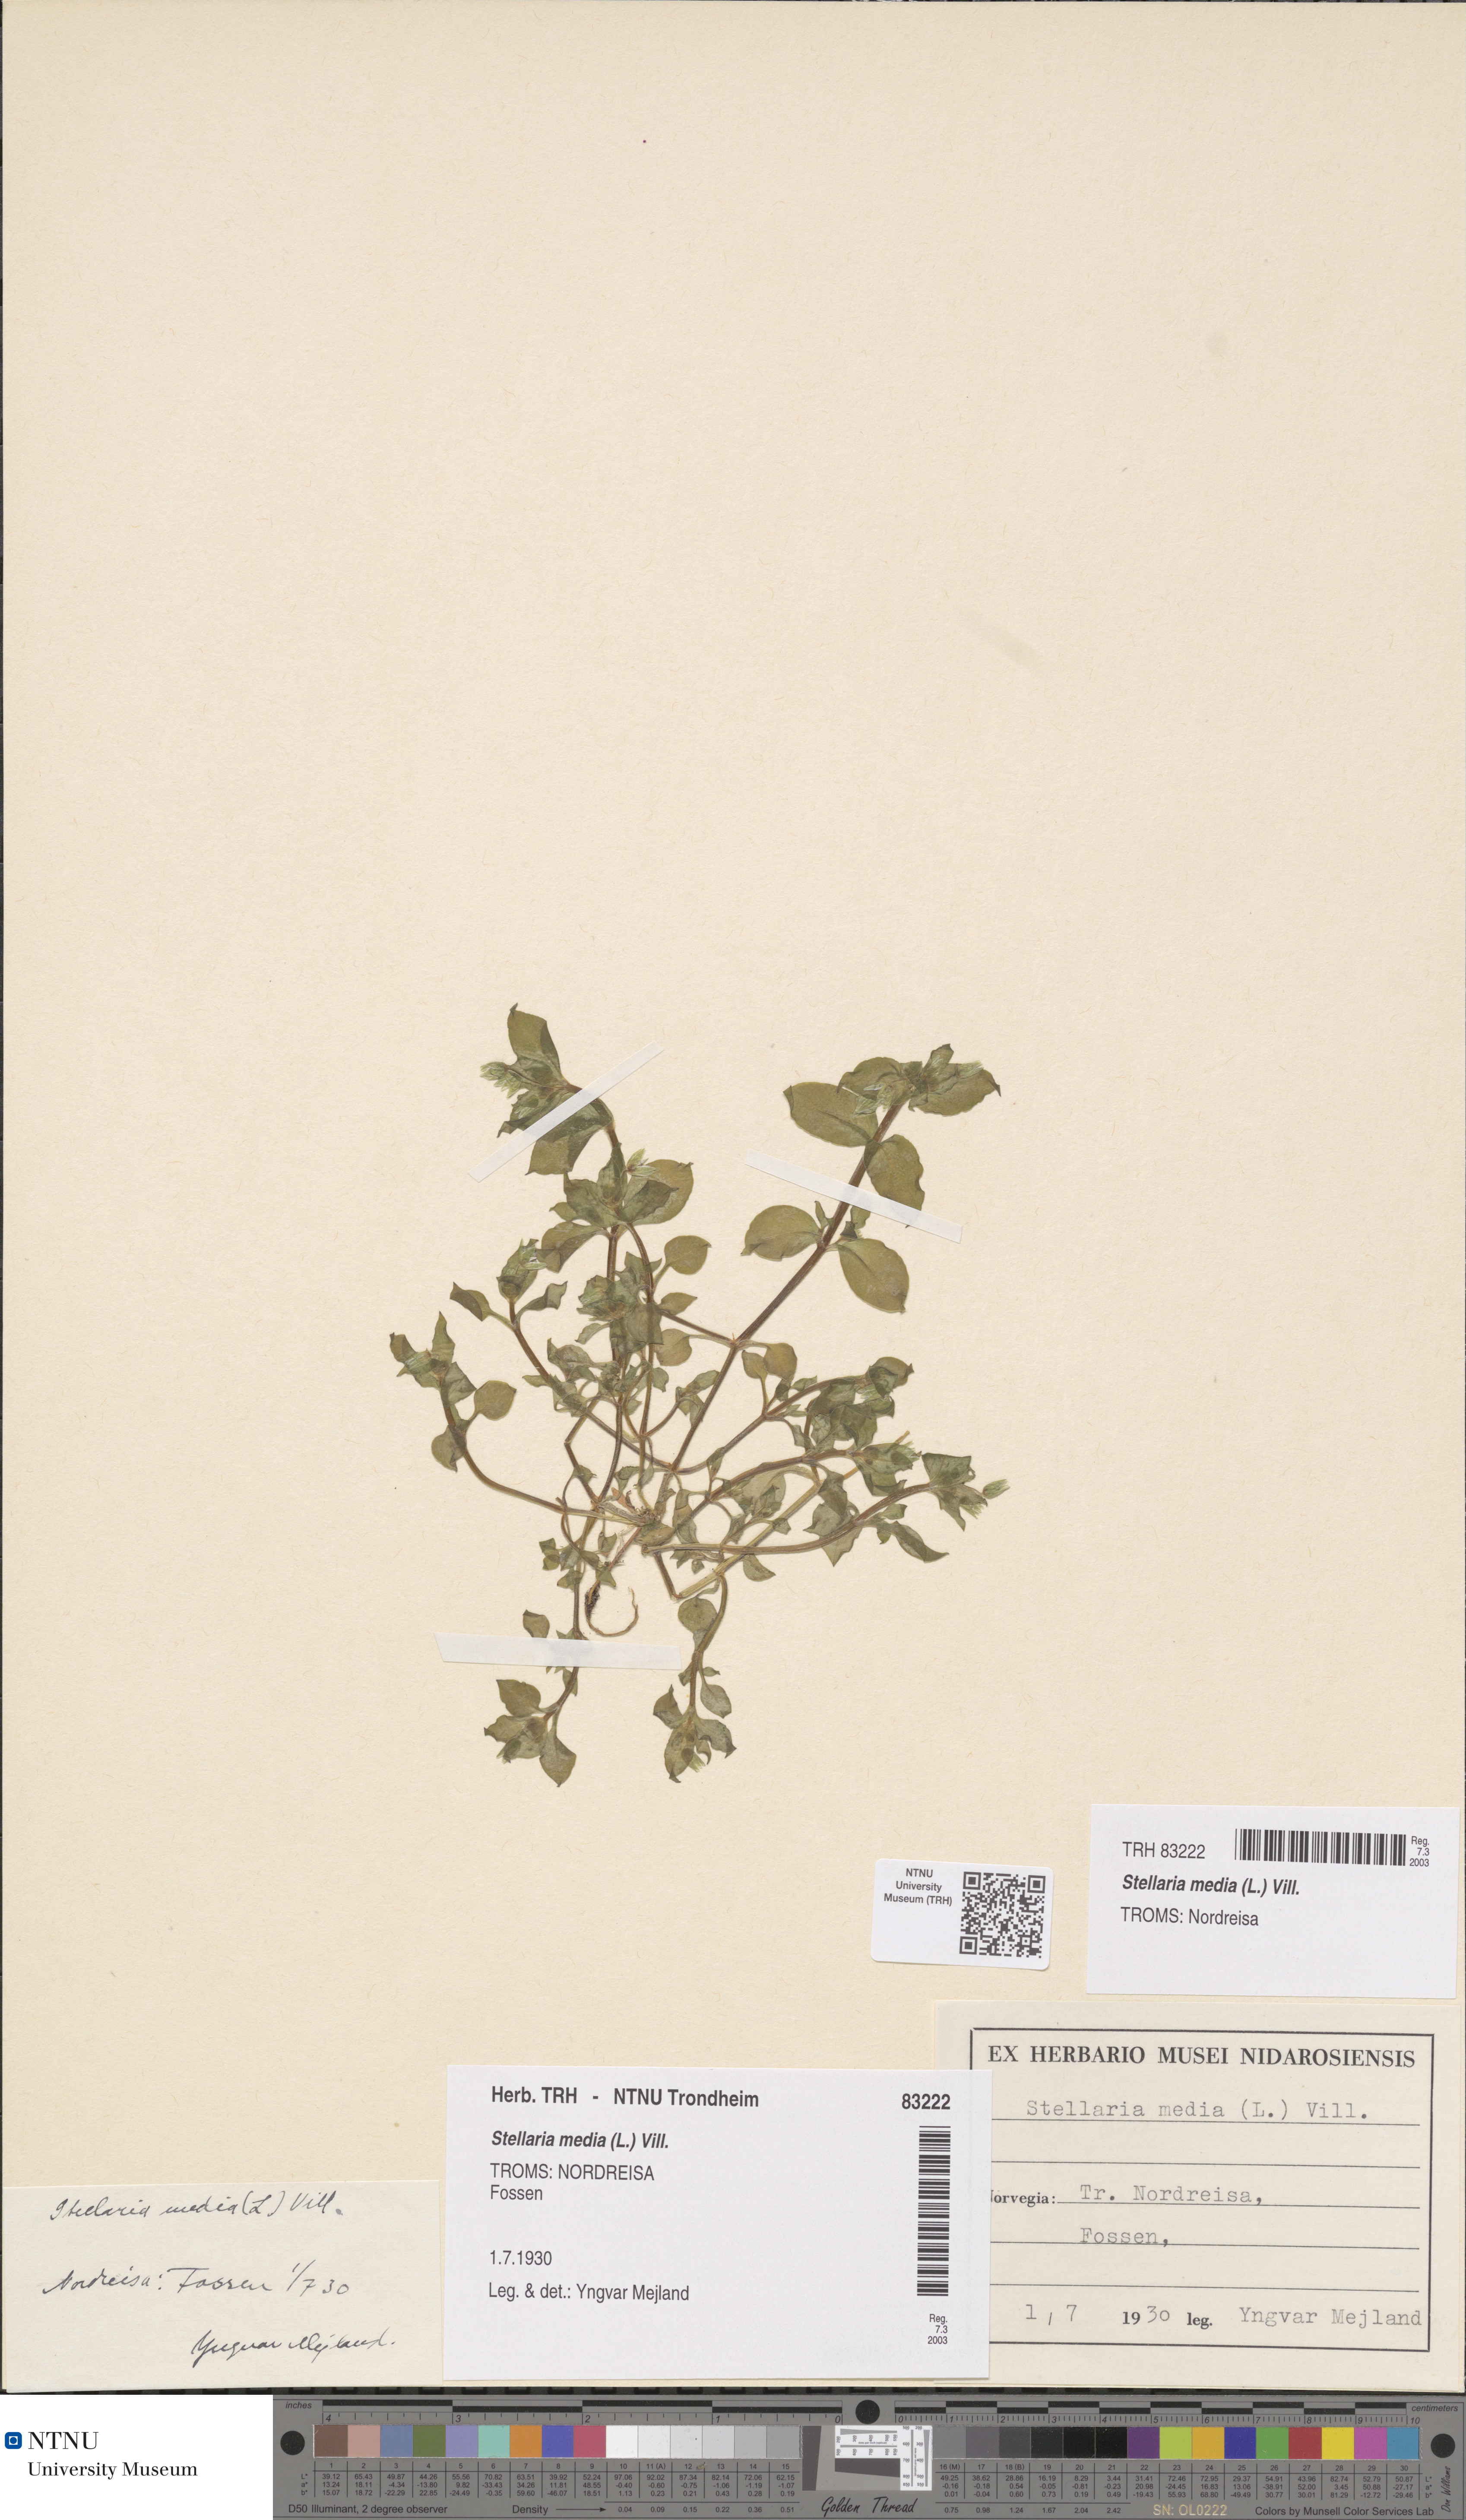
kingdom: Plantae
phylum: Tracheophyta
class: Magnoliopsida
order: Caryophyllales
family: Caryophyllaceae
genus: Stellaria
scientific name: Stellaria media
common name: Common chickweed
